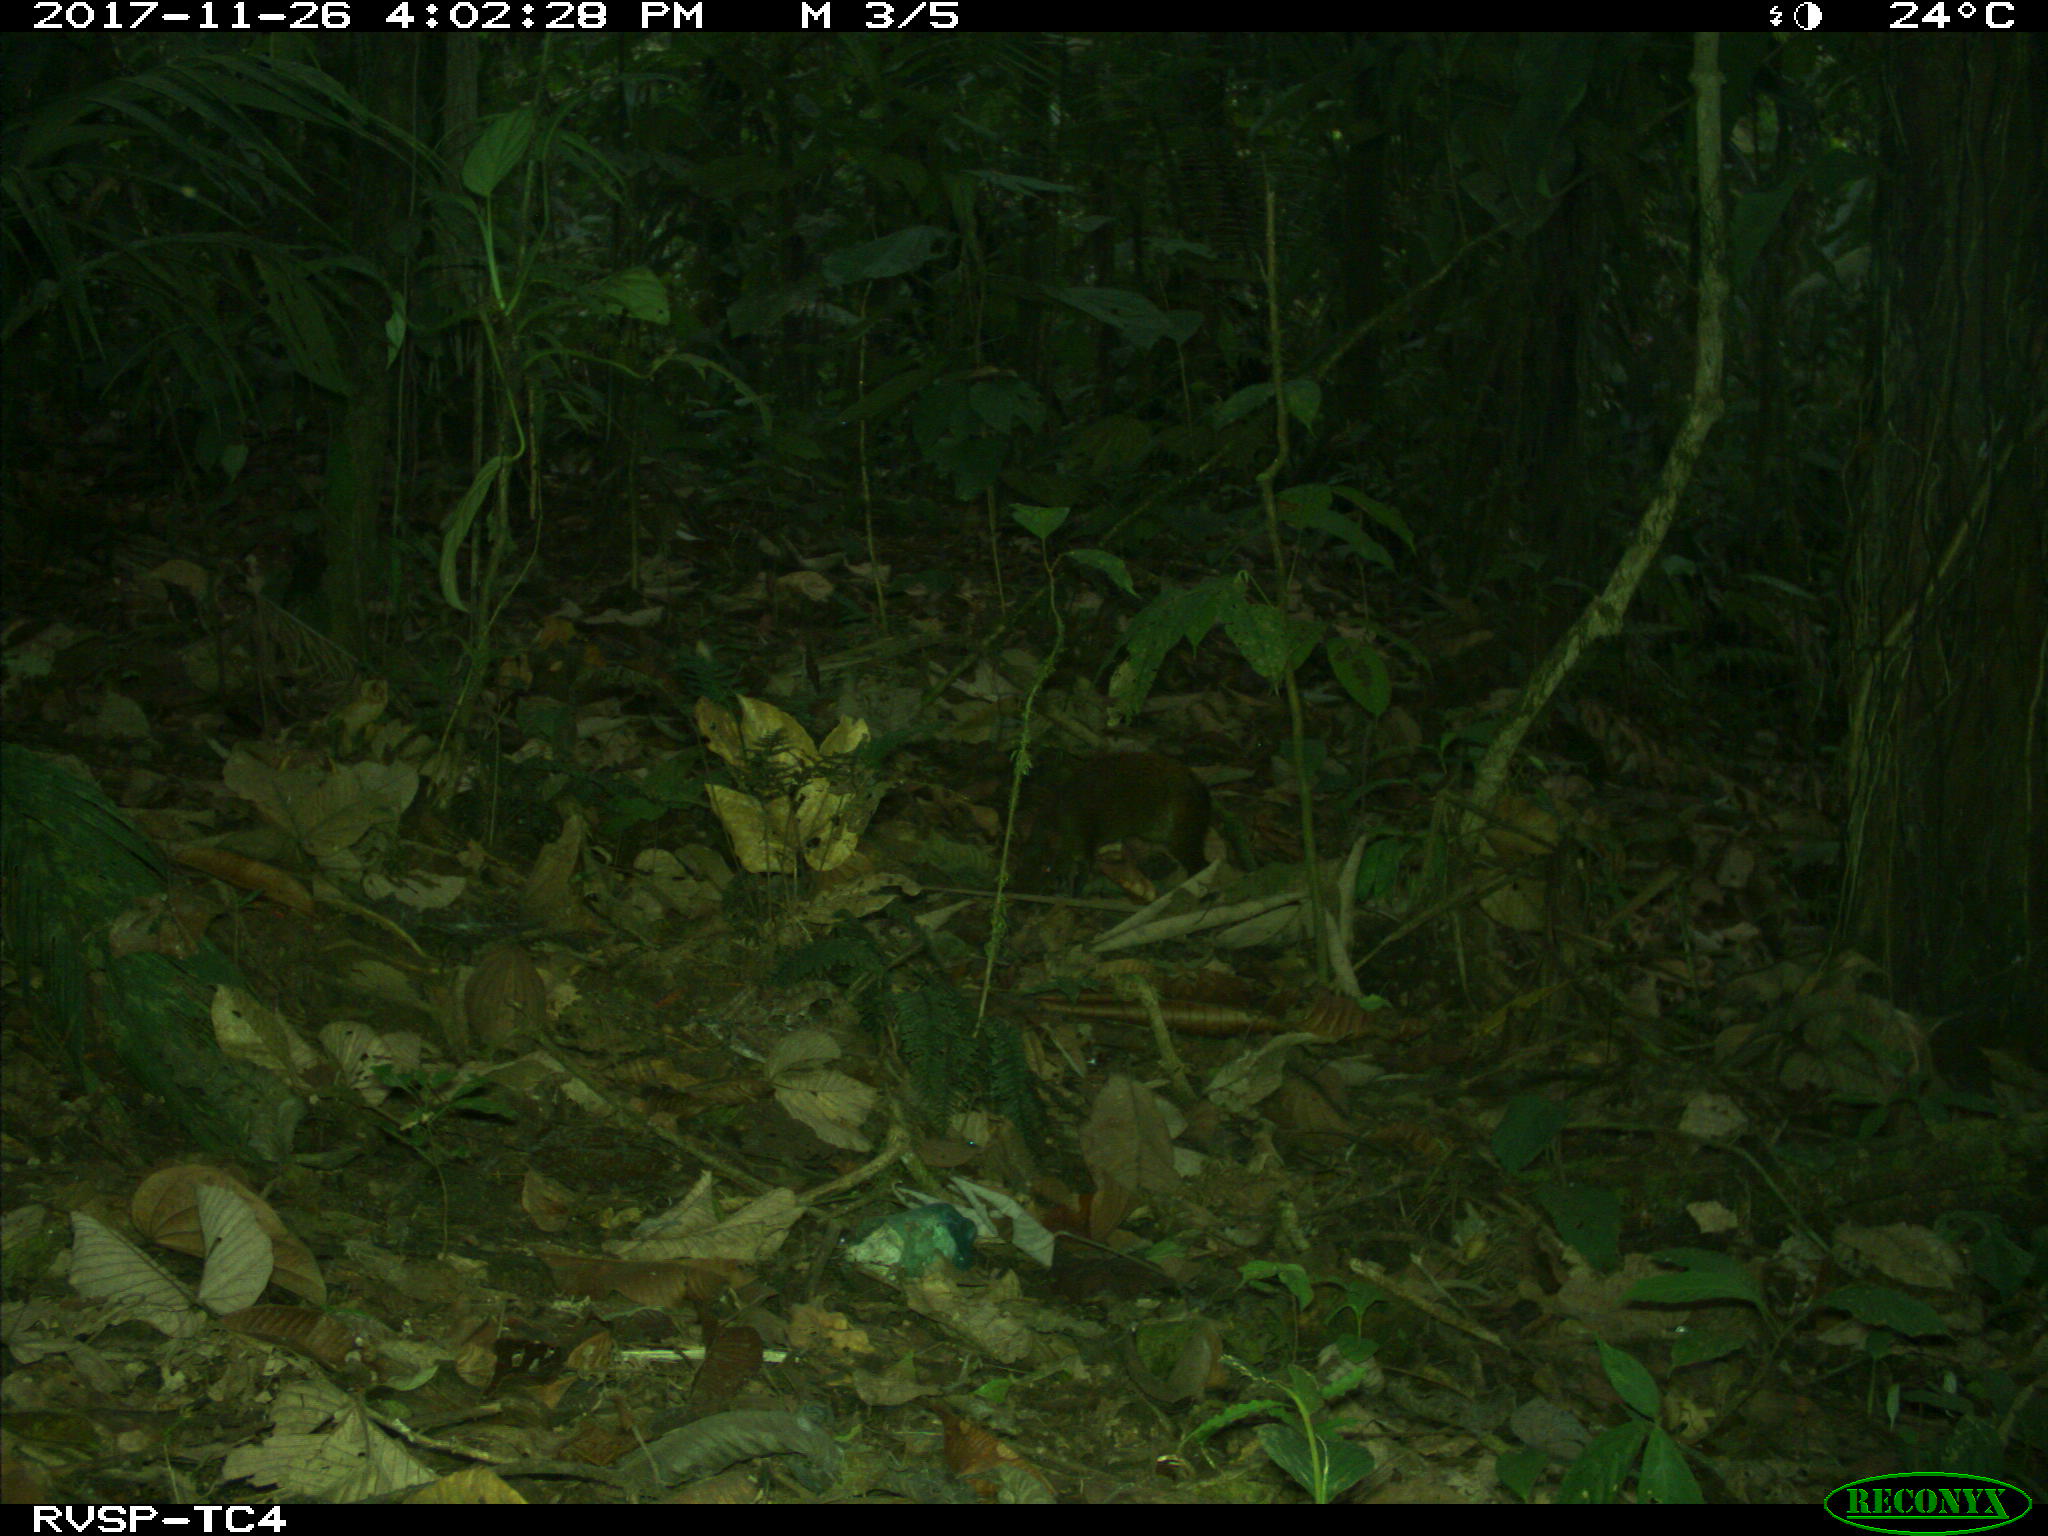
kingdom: Animalia
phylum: Chordata
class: Mammalia
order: Rodentia
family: Dasyproctidae
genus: Dasyprocta
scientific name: Dasyprocta punctata
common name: Central american agouti
